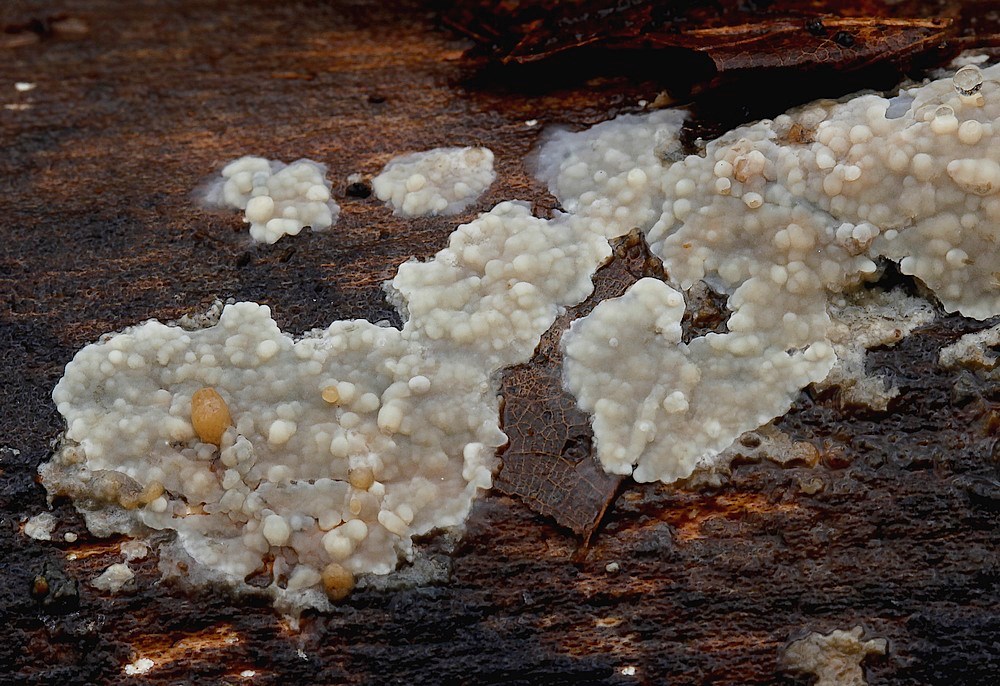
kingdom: Fungi
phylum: Basidiomycota
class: Agaricomycetes
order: Agaricales
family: Radulomycetaceae
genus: Radulomyces
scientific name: Radulomyces confluens
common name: glat naftalinskind
